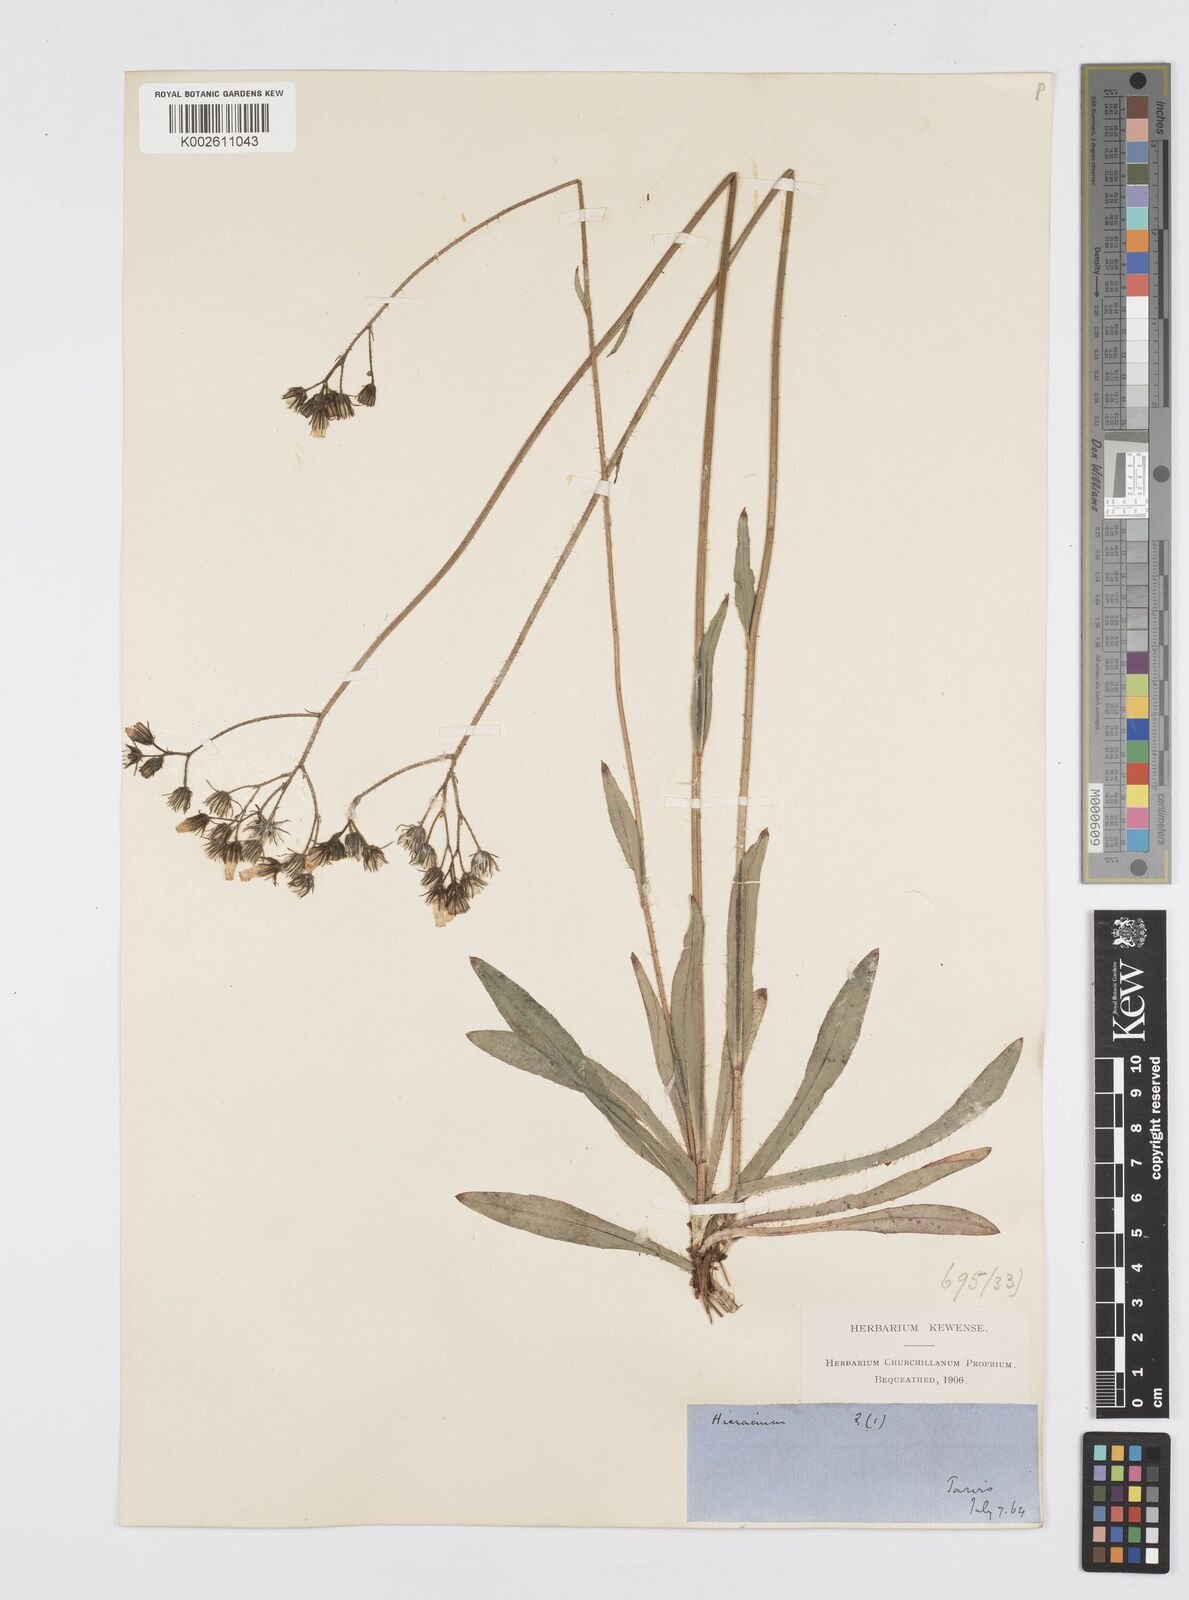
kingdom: Plantae
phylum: Tracheophyta
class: Magnoliopsida
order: Asterales
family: Asteraceae
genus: Pilosella
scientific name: Pilosella piloselloides
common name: Glaucous king-devil
